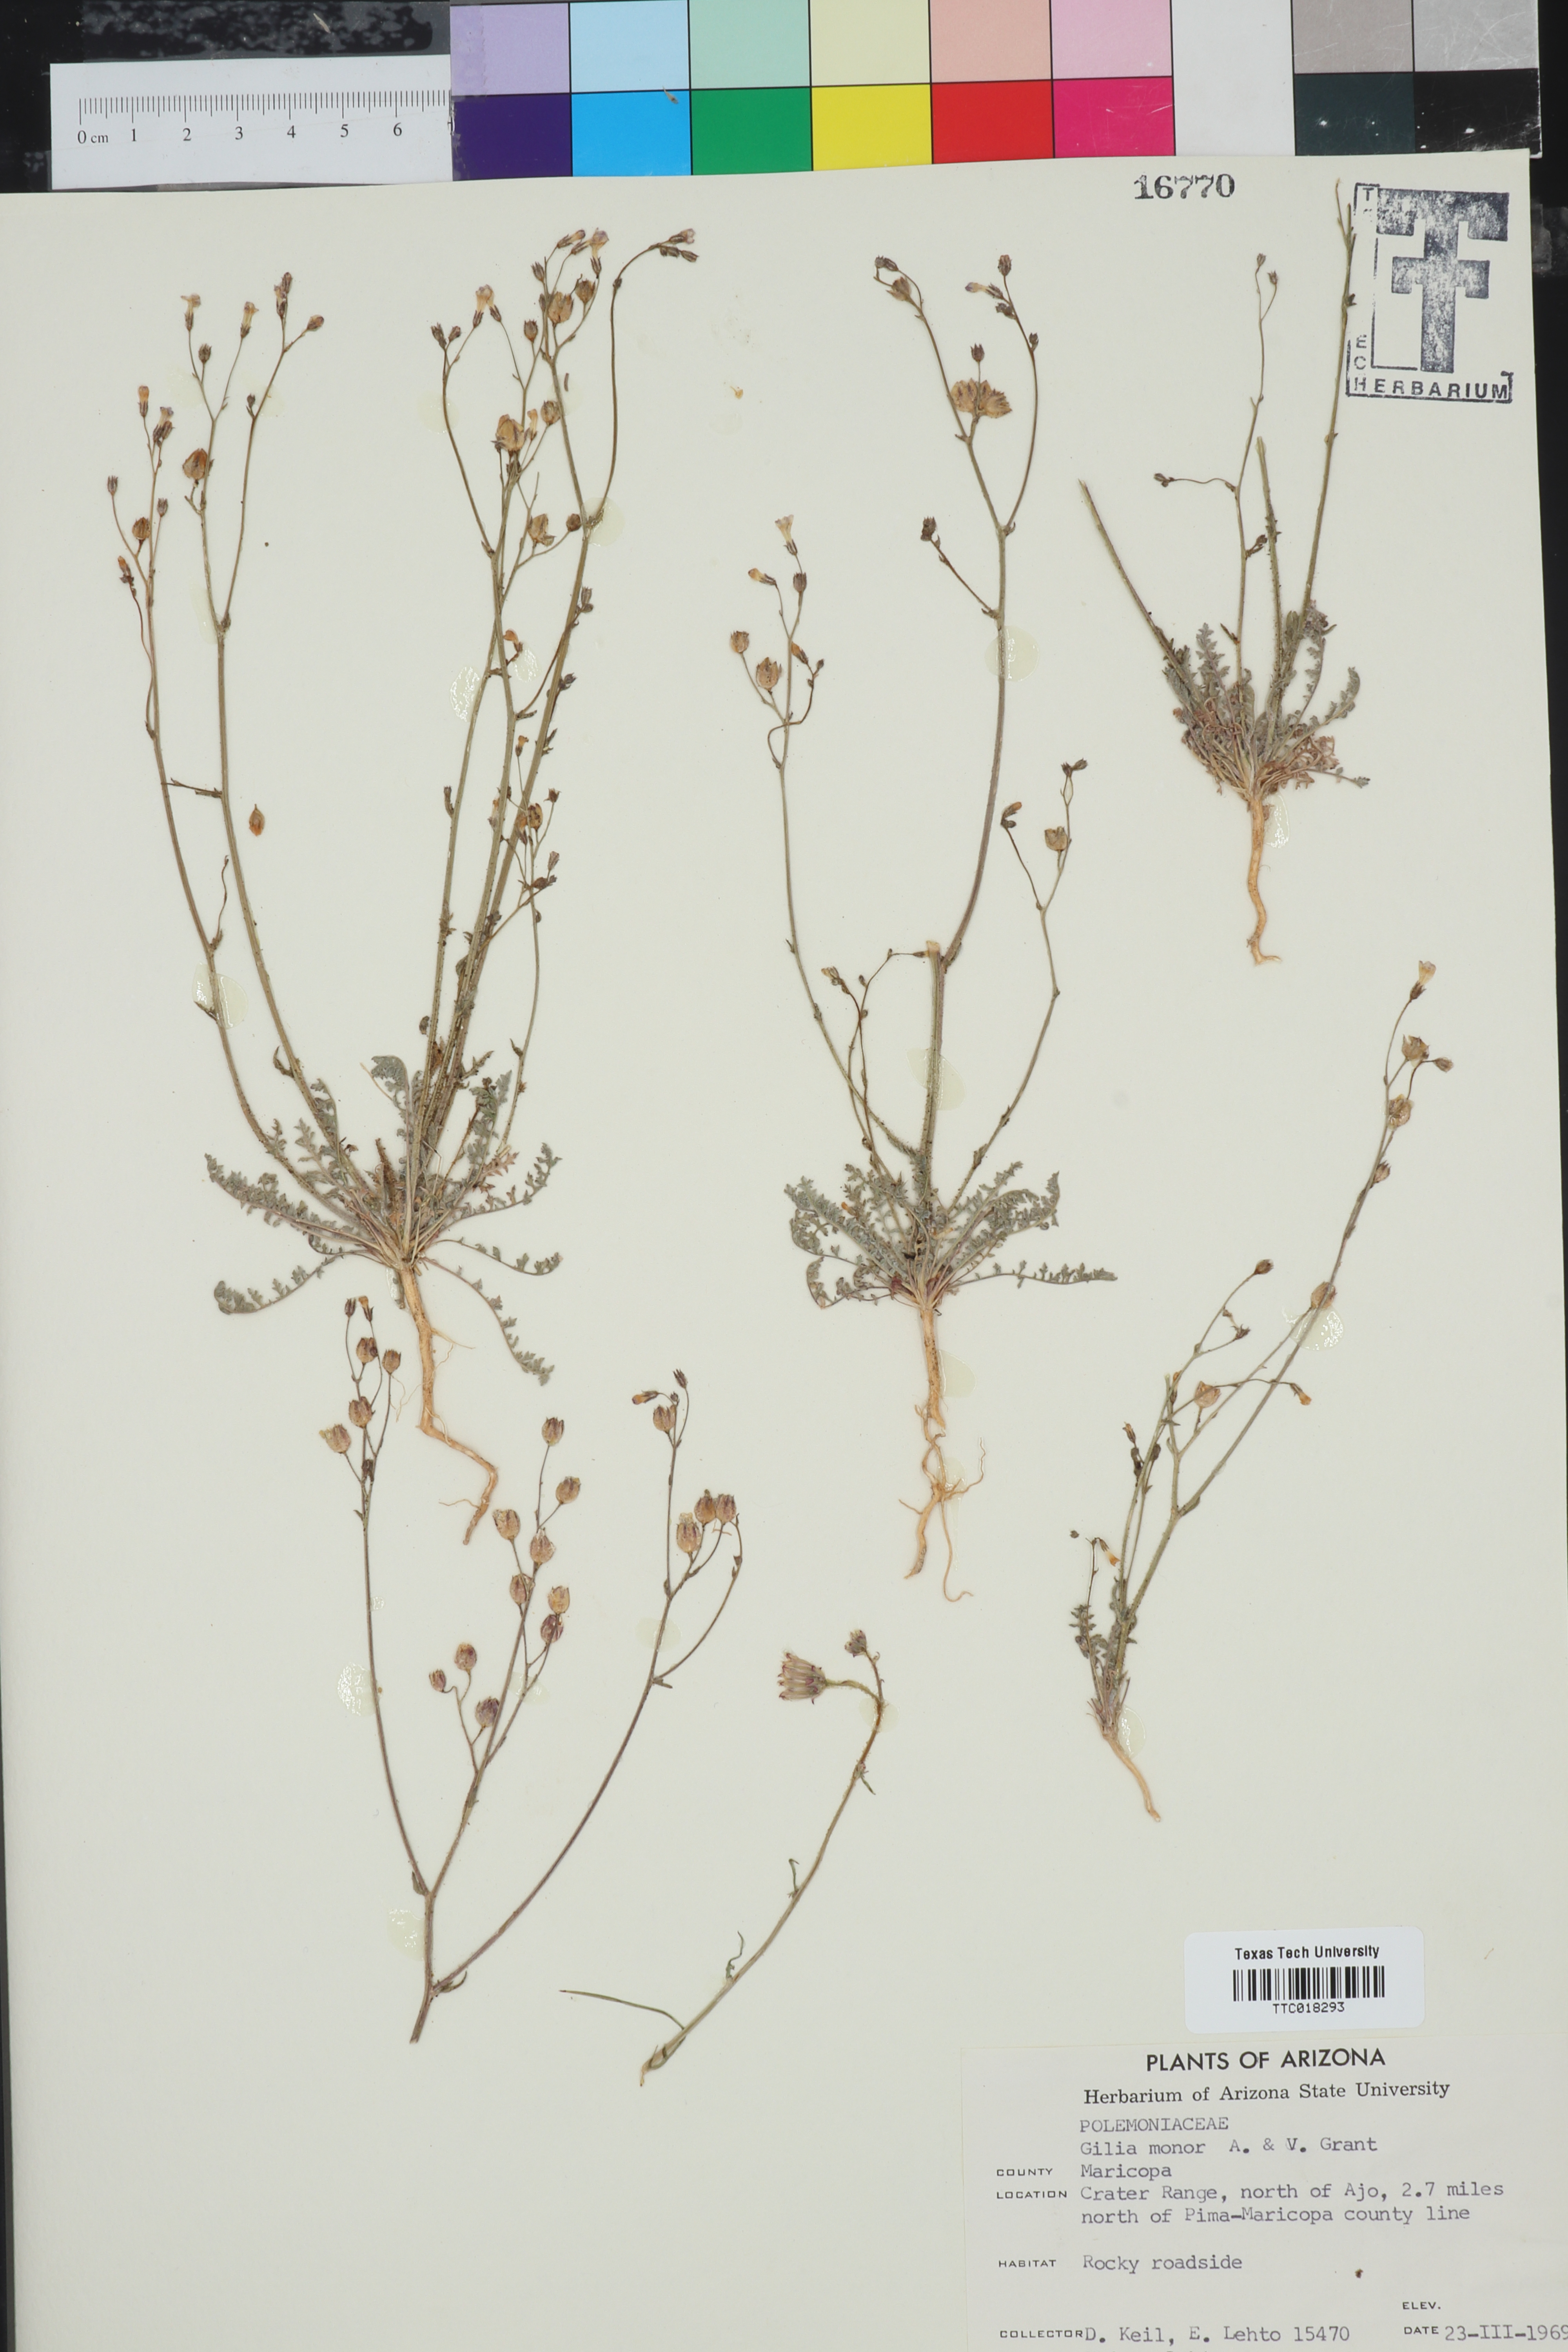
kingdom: Plantae
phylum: Tracheophyta
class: Magnoliopsida
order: Ericales
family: Polemoniaceae
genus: Gilia
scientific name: Gilia minor
